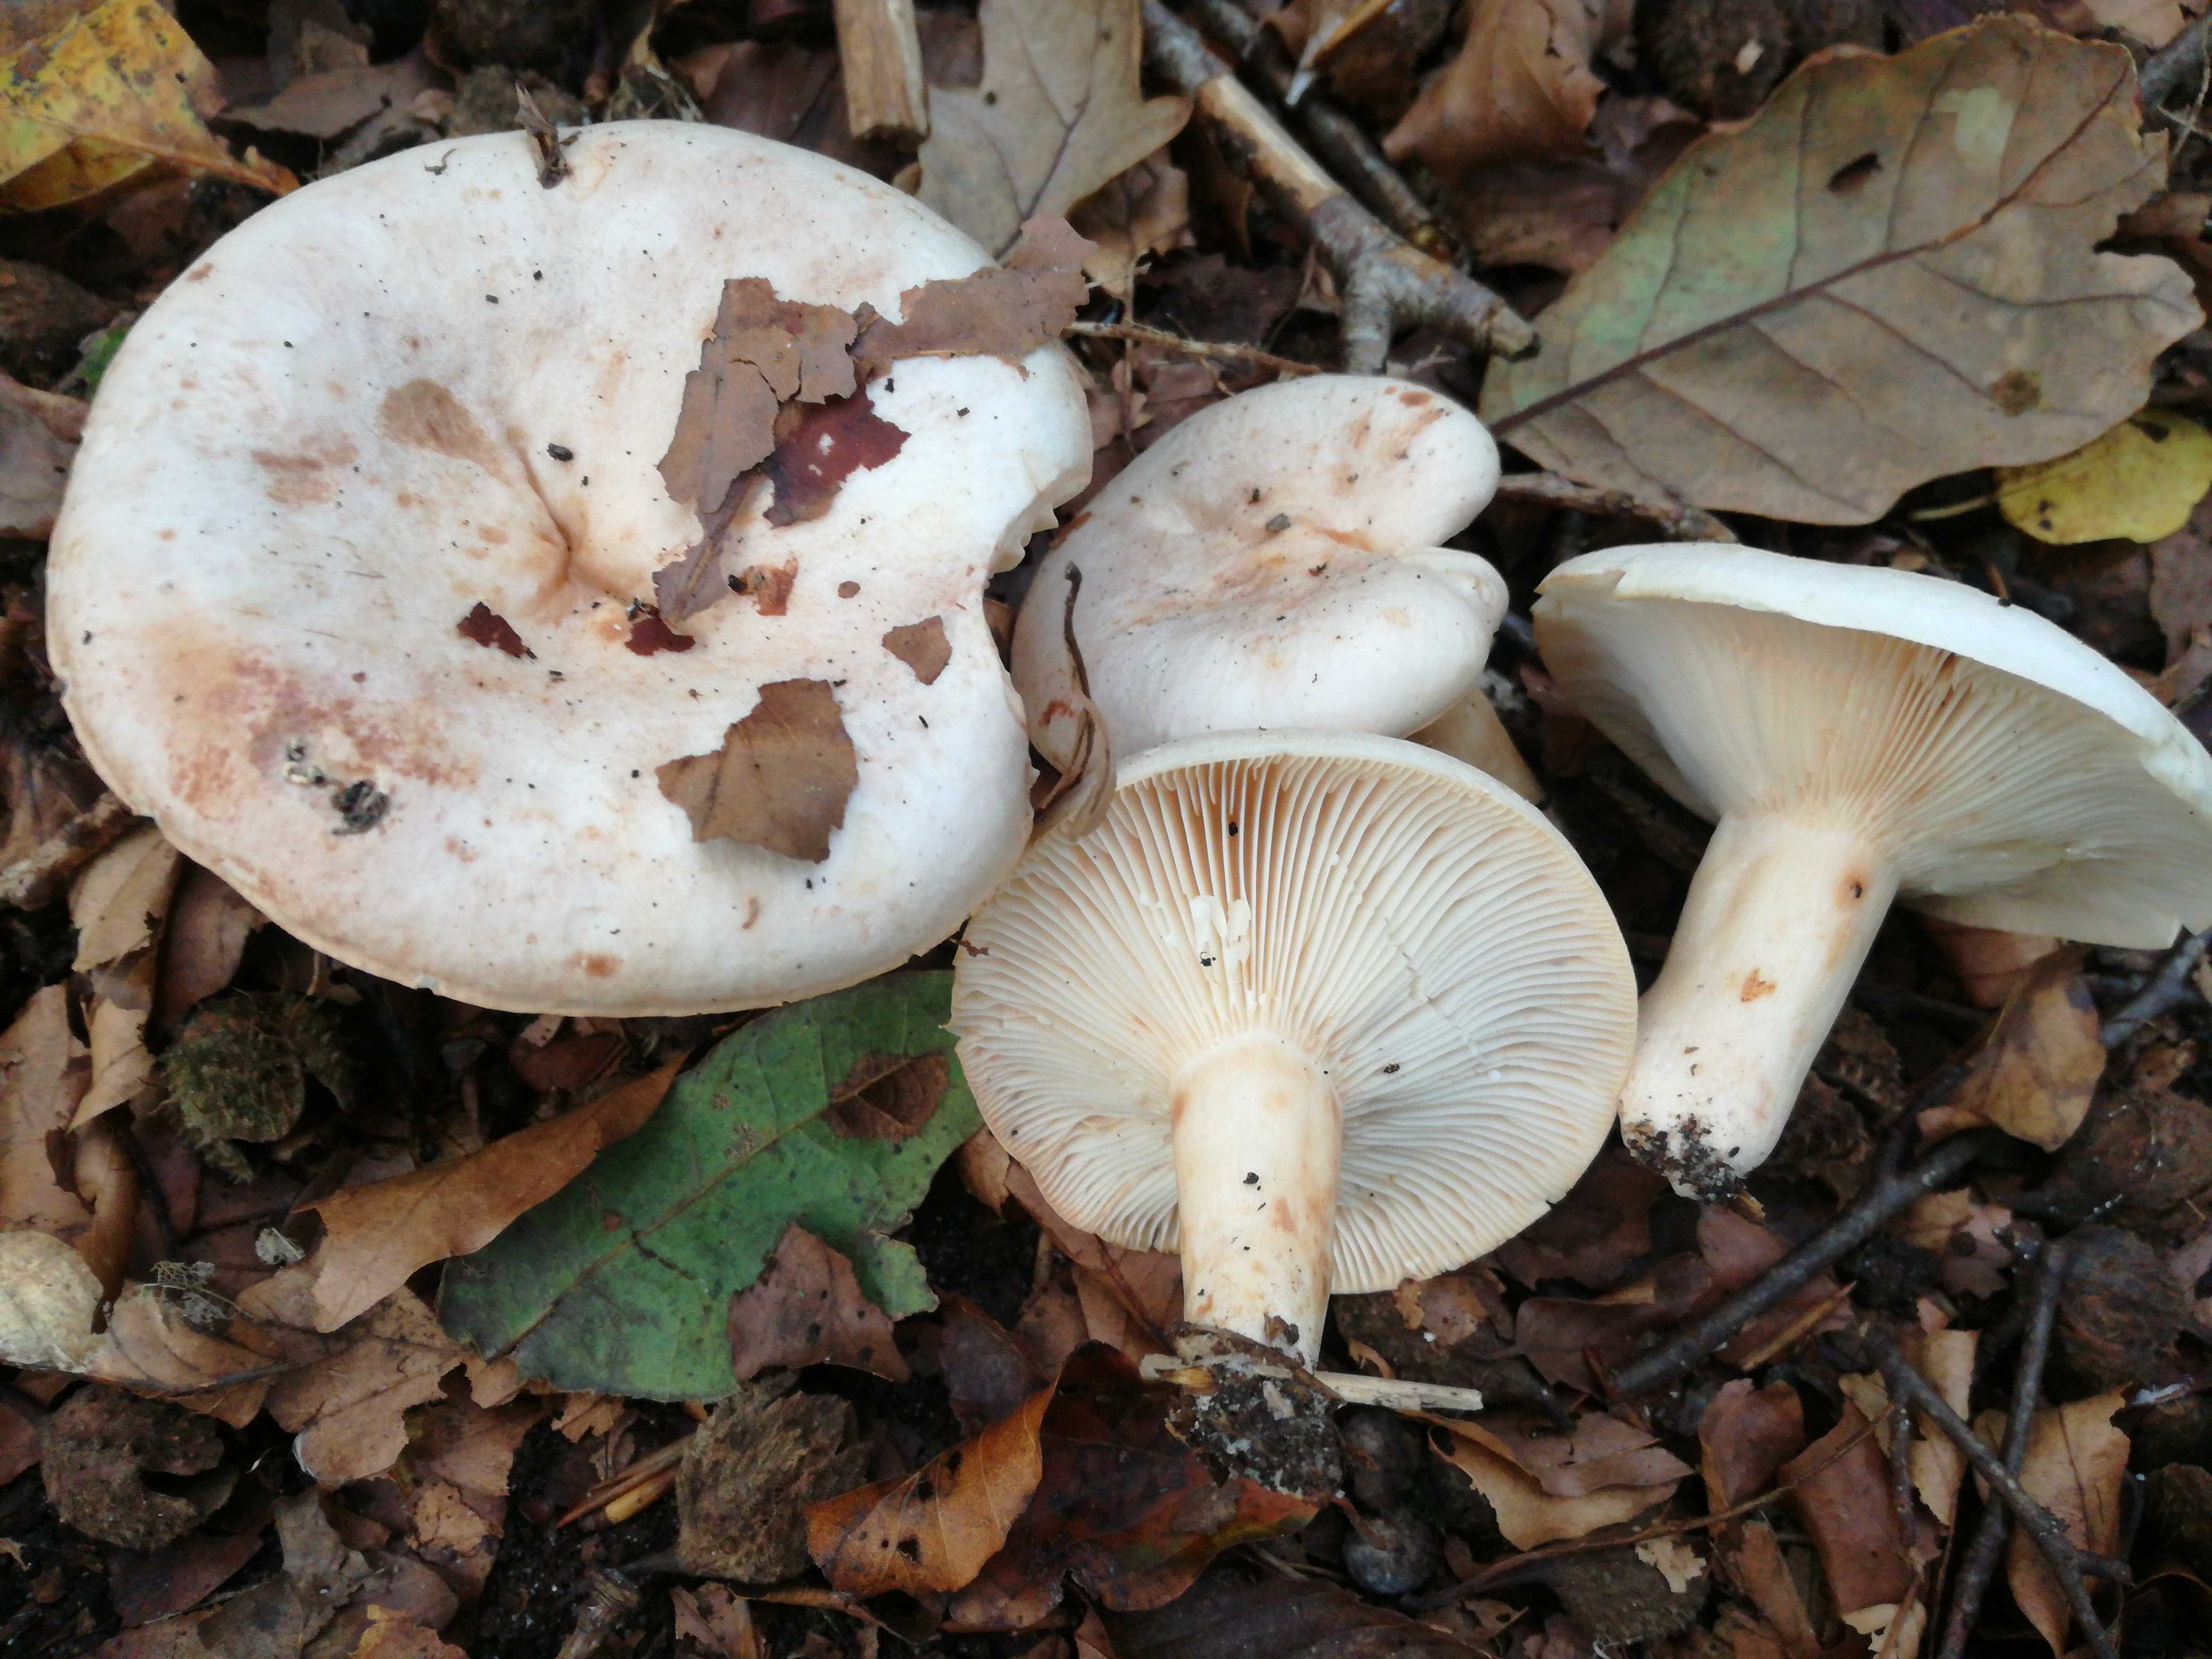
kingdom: Fungi
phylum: Basidiomycota
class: Agaricomycetes
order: Russulales
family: Russulaceae
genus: Lactarius
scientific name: Lactarius pallidus
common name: bleg mælkehat
